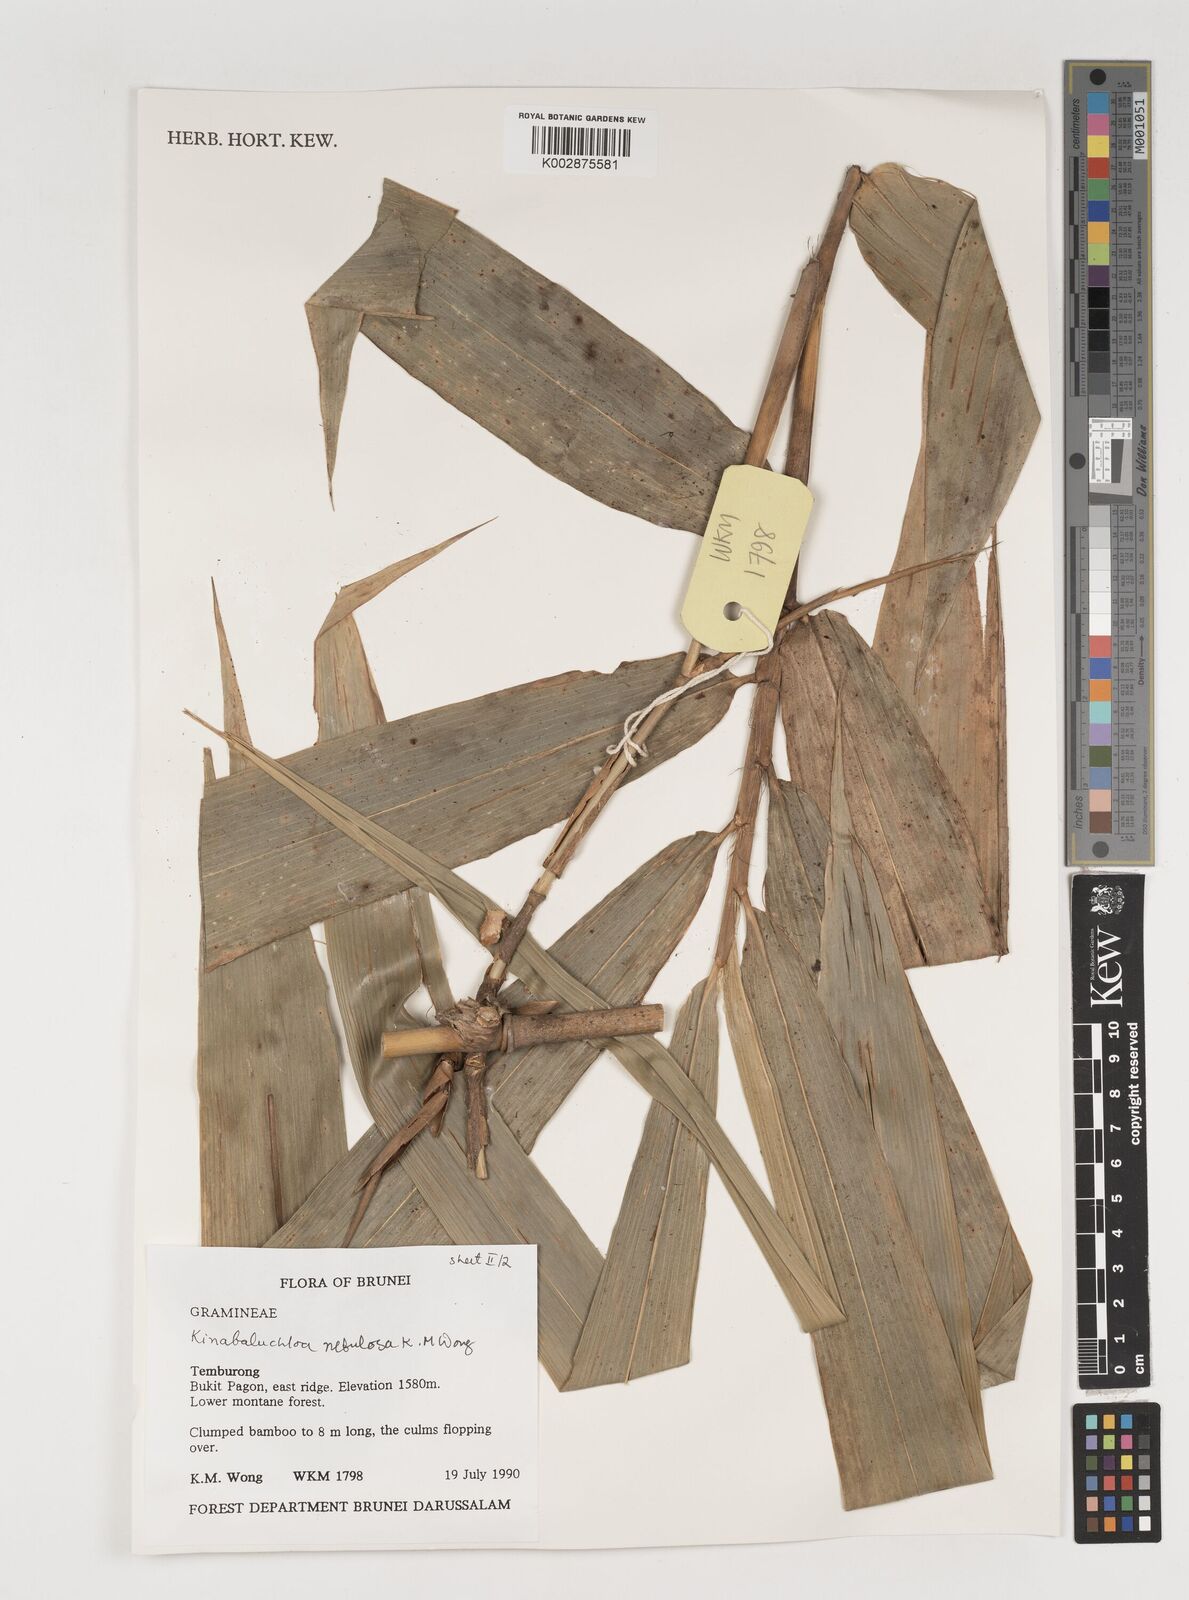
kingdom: Plantae
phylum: Tracheophyta
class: Liliopsida
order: Poales
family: Poaceae
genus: Kinabaluchloa
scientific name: Kinabaluchloa nebulosa
